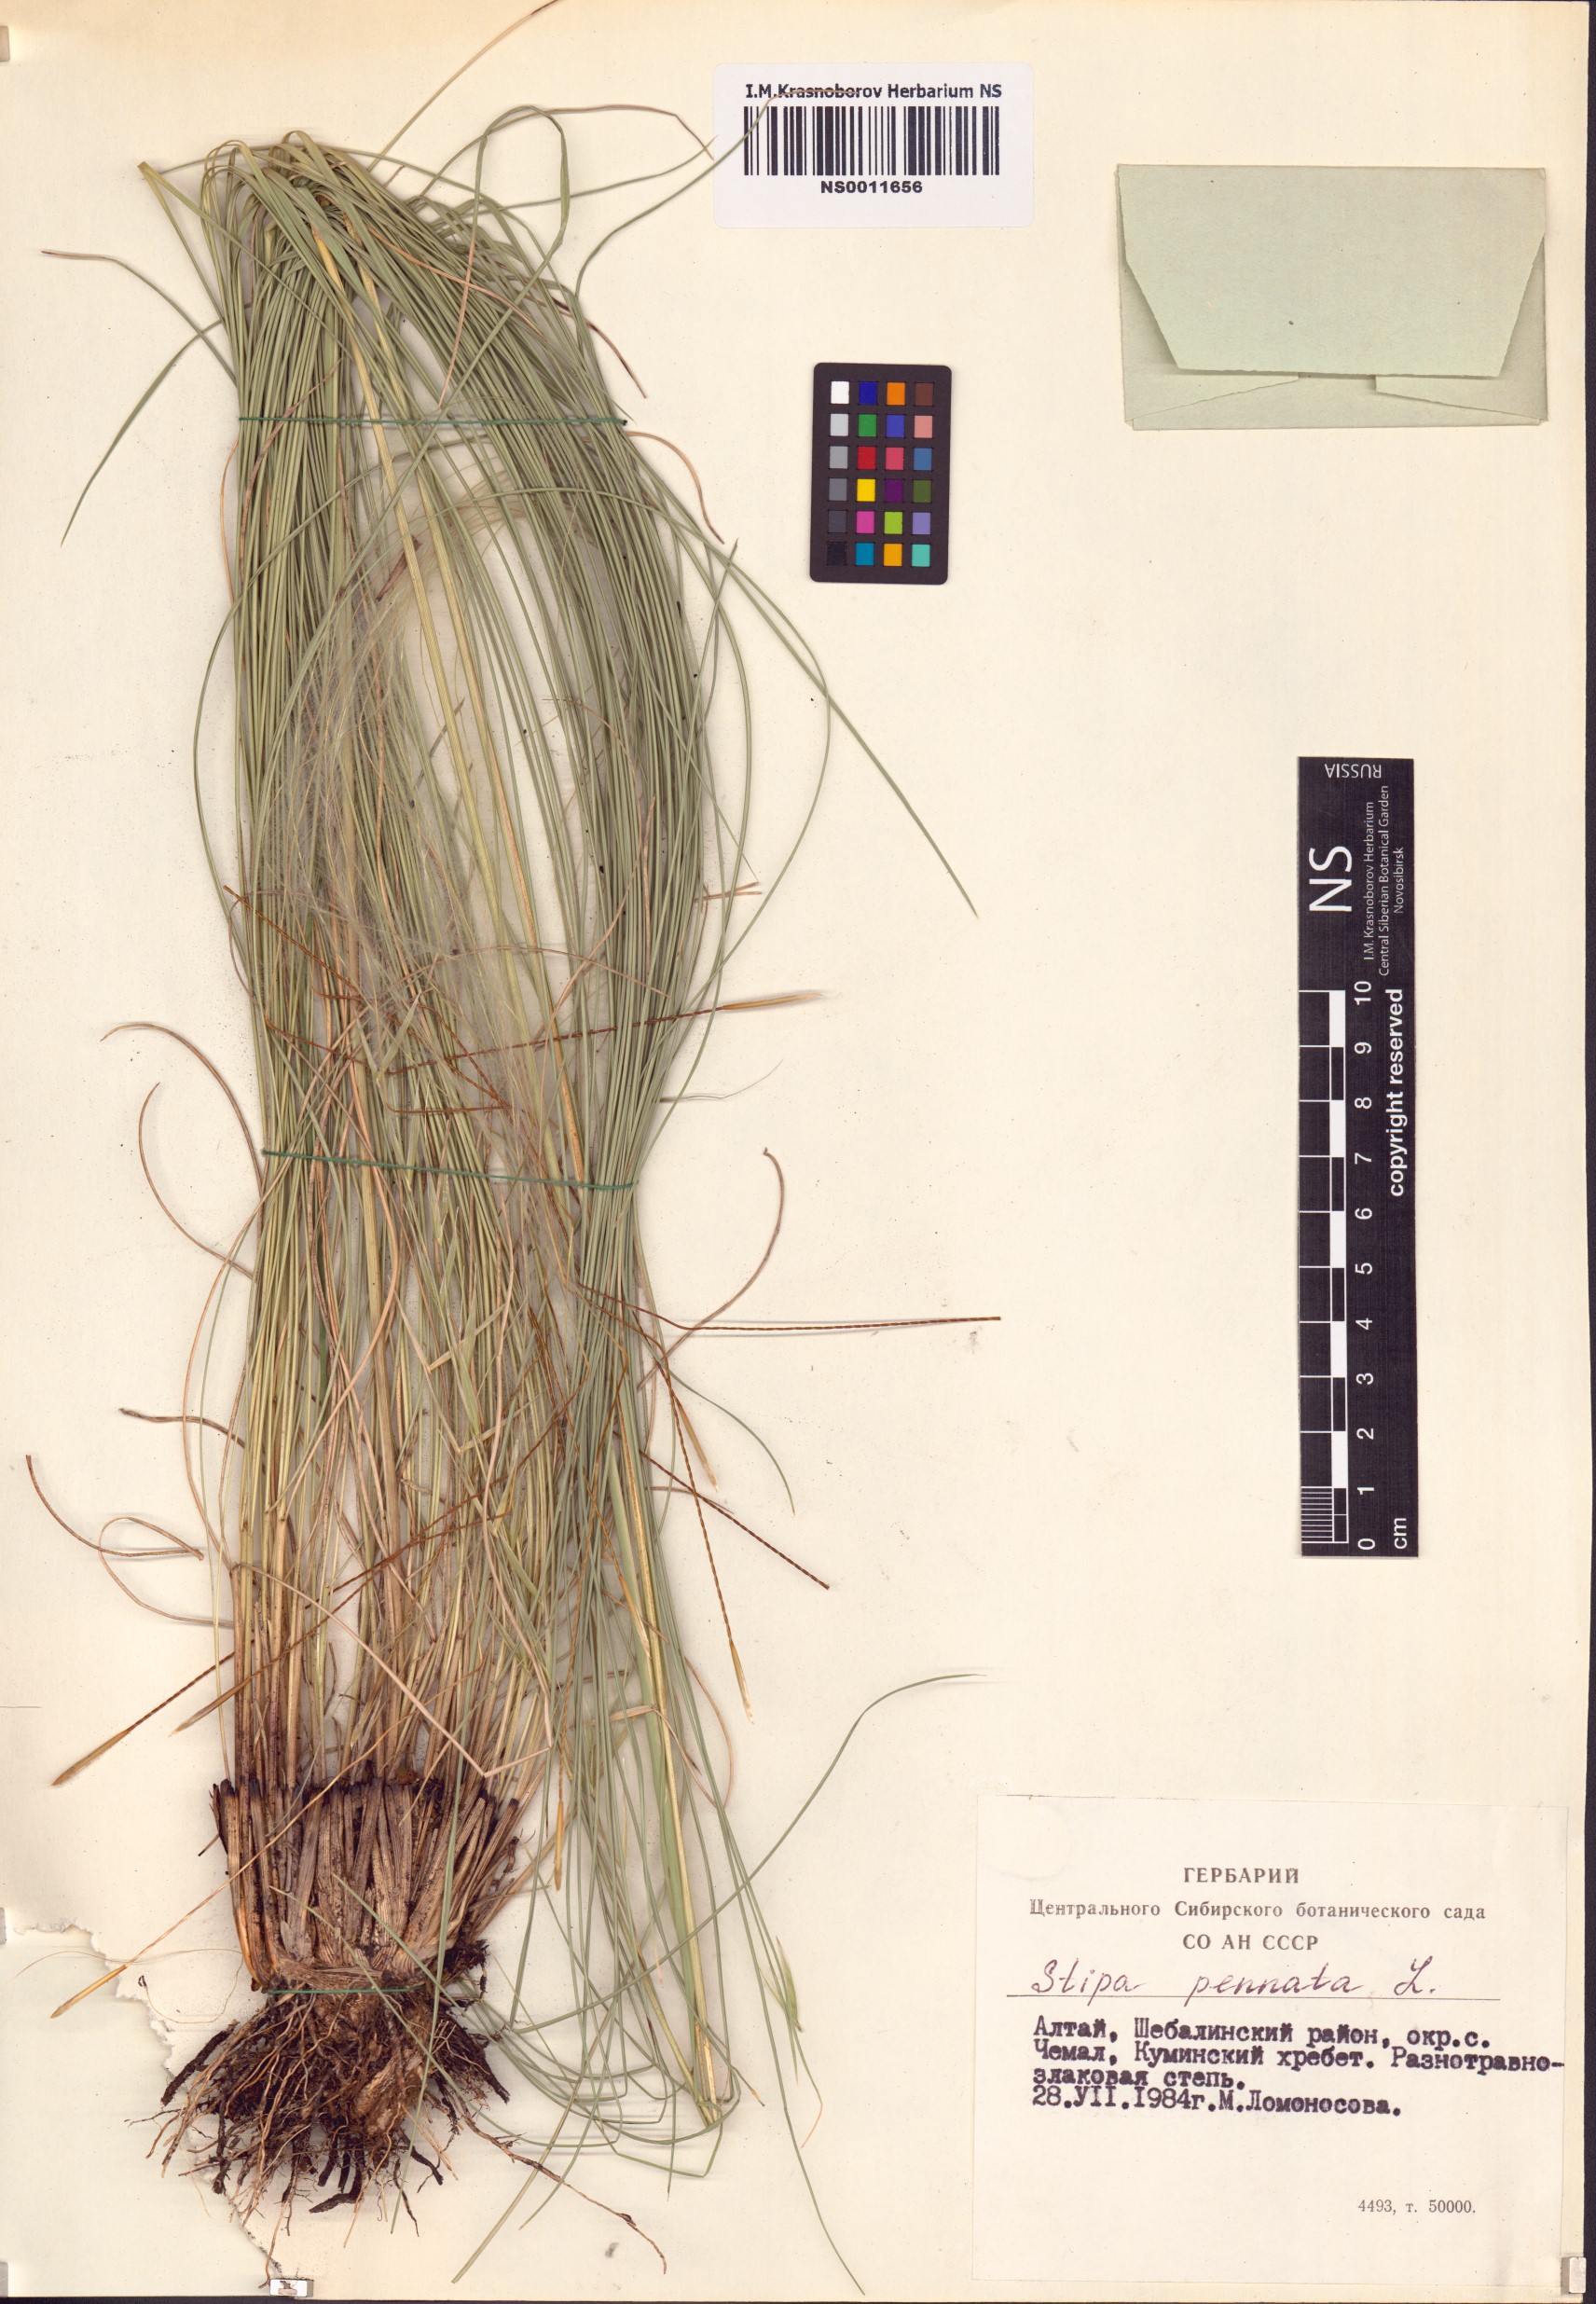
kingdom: Plantae
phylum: Tracheophyta
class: Liliopsida
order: Poales
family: Poaceae
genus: Stipa
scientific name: Stipa pennata
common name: European feather grass
